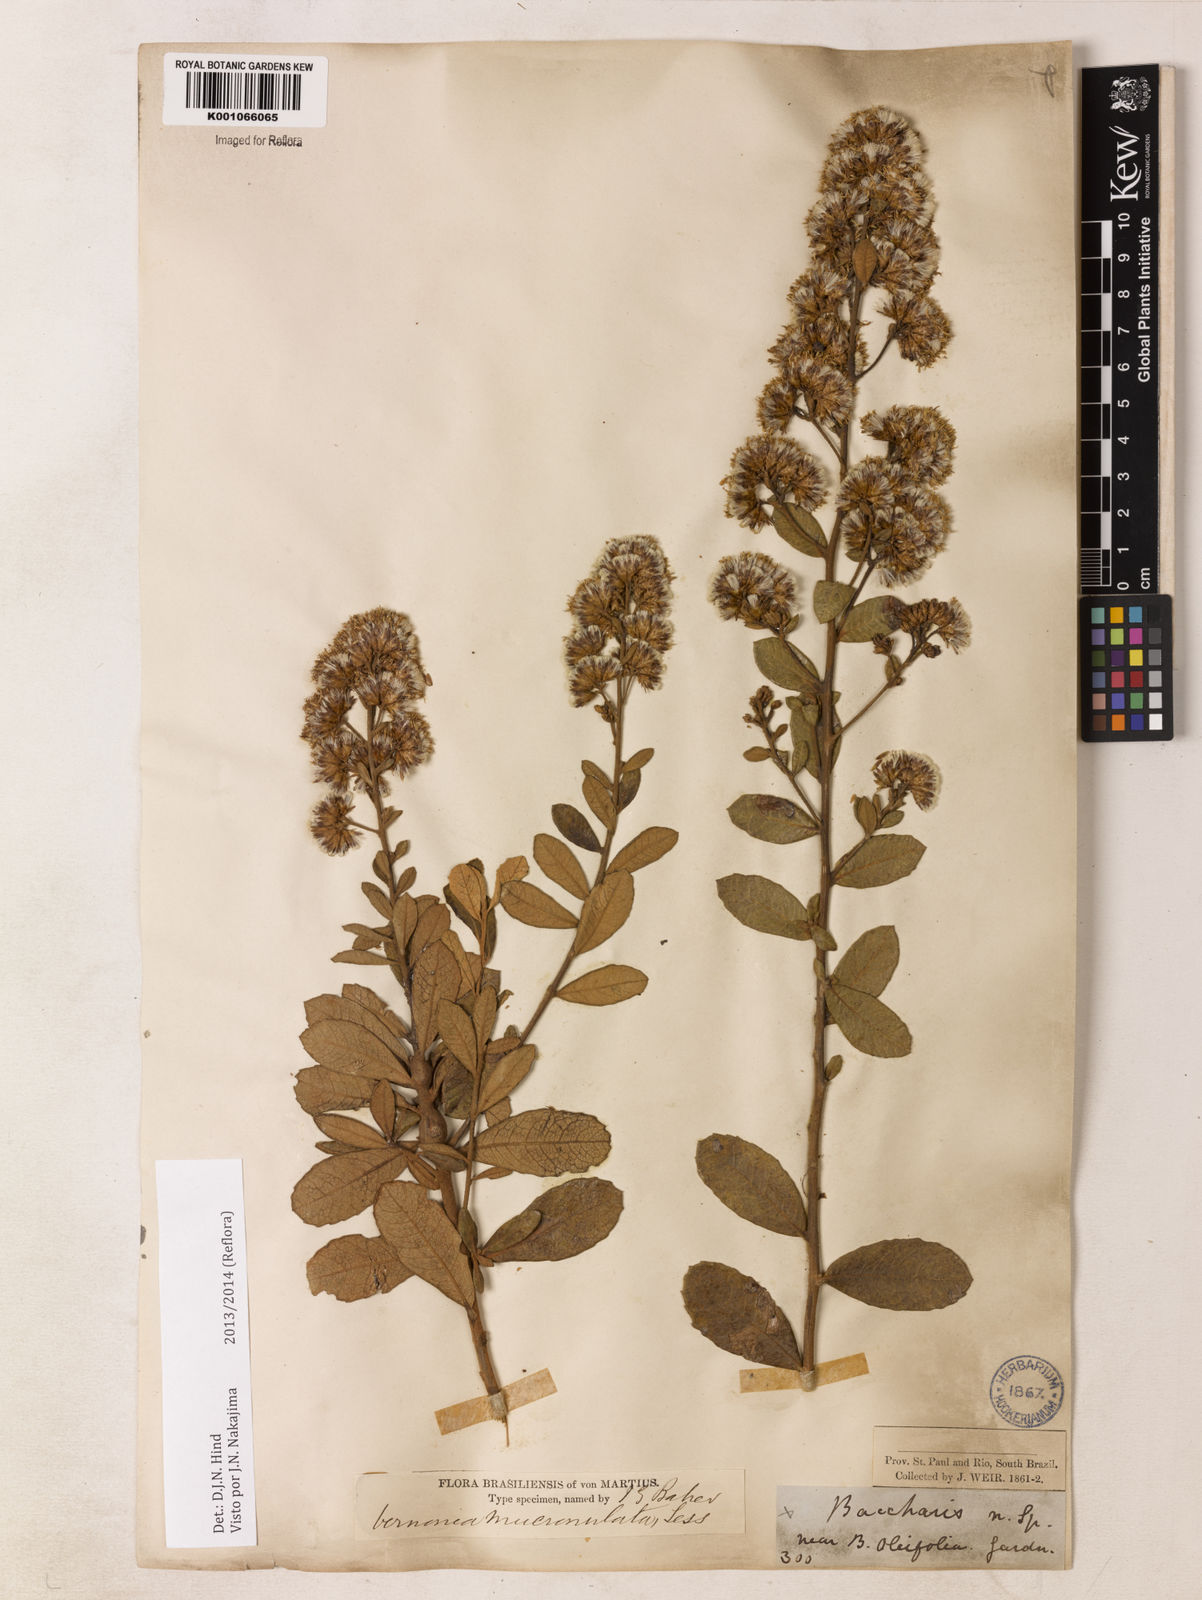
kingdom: Plantae
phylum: Tracheophyta
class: Magnoliopsida
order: Asterales
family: Asteraceae
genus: Vernonanthura
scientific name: Vernonanthura mucronulata
